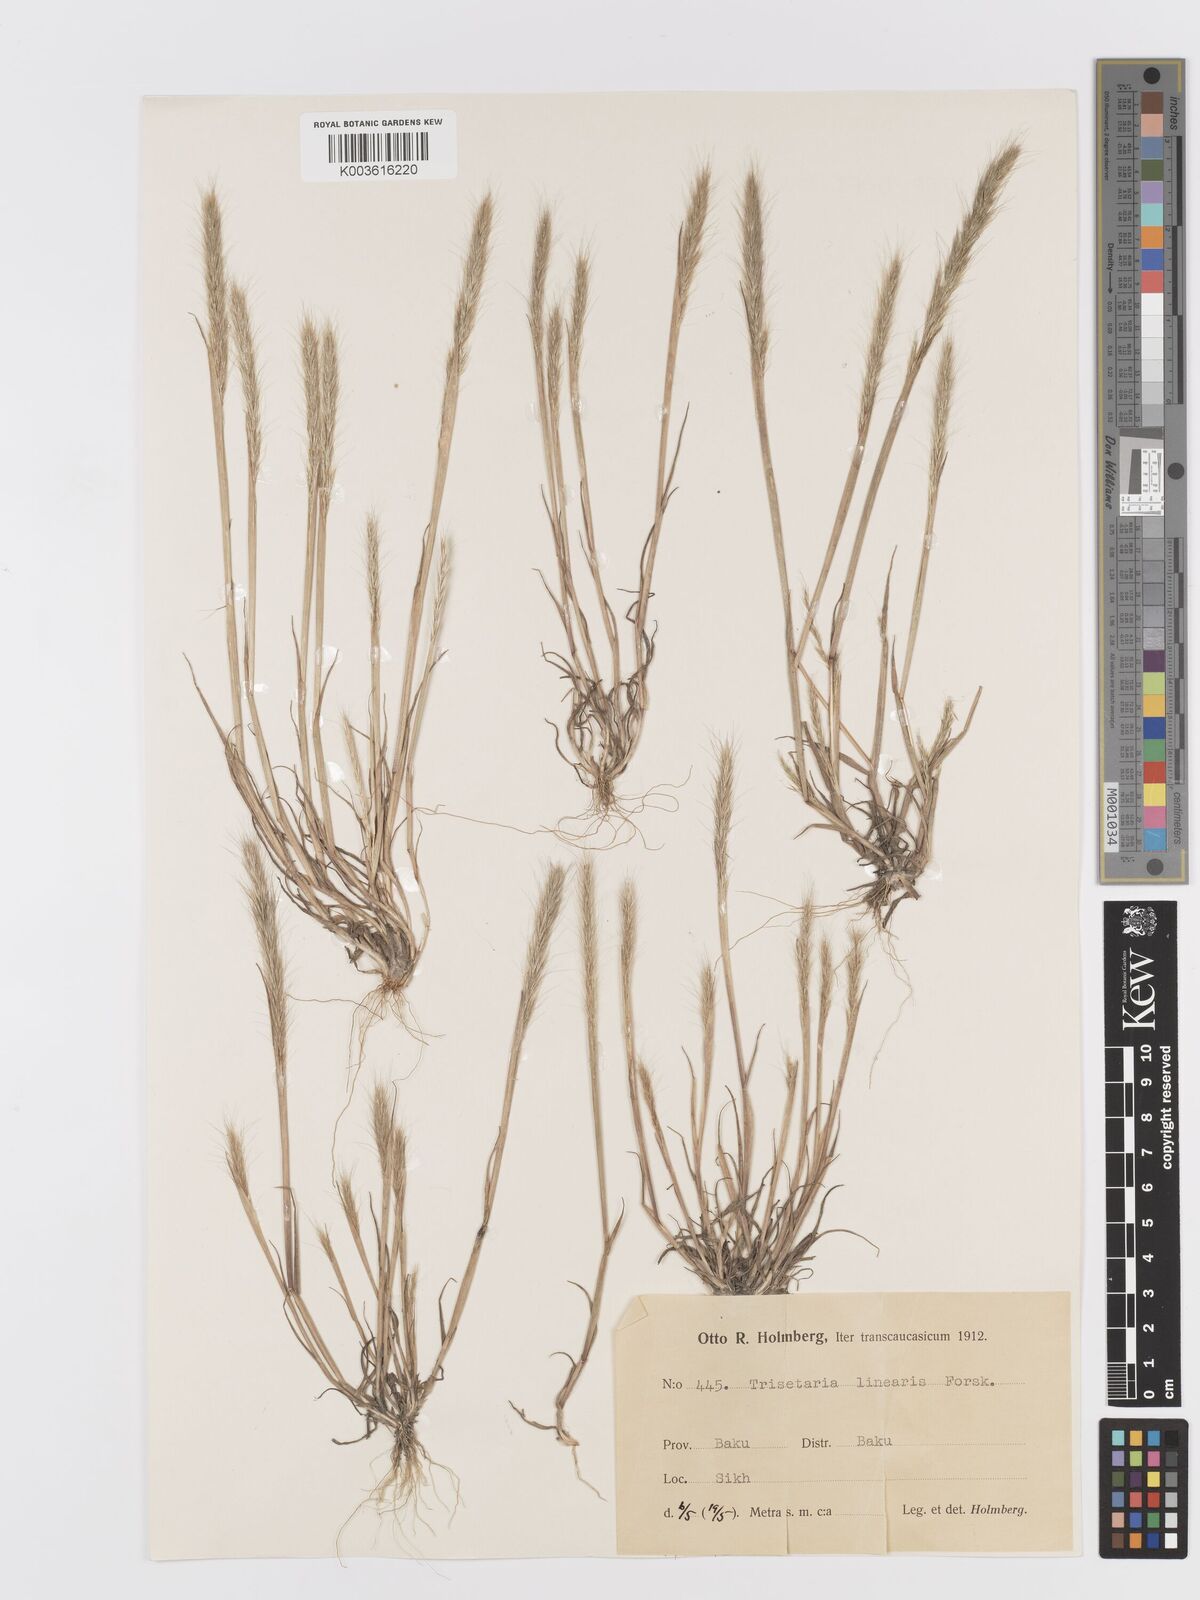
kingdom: Plantae
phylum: Tracheophyta
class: Liliopsida
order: Poales
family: Poaceae
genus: Trisetaria
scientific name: Trisetaria linearis
